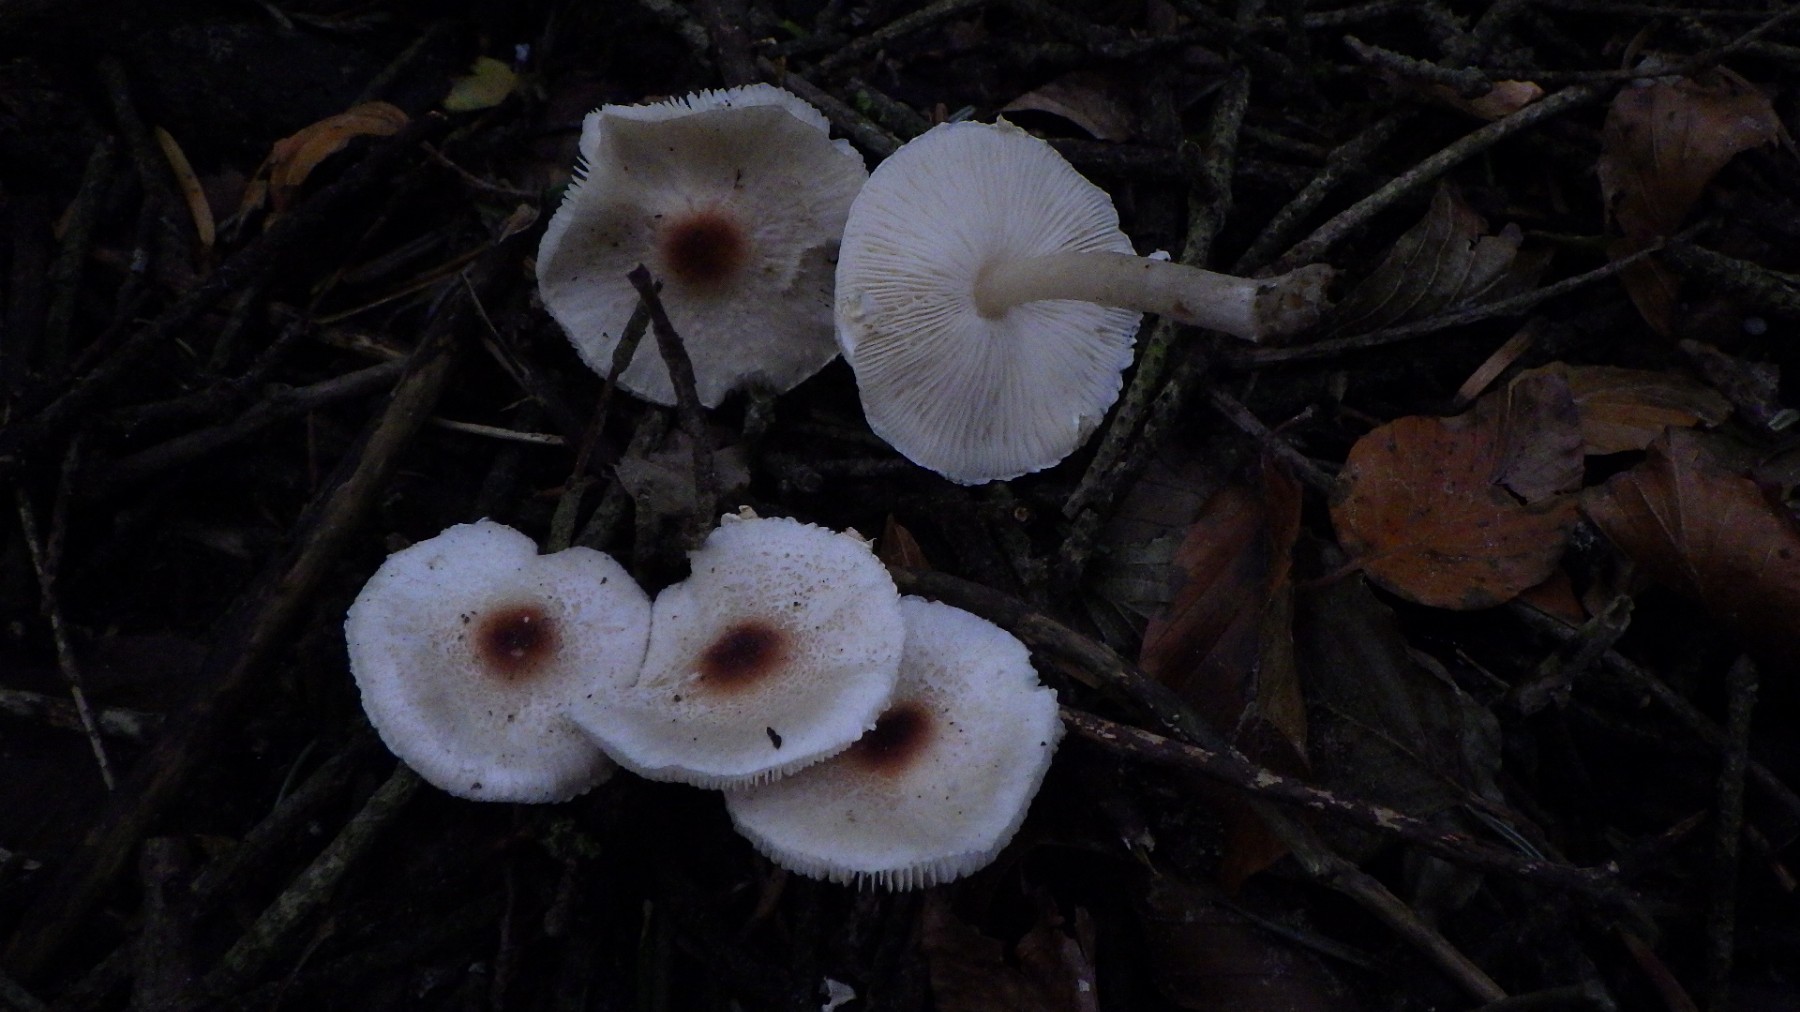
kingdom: Fungi
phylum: Basidiomycota
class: Agaricomycetes
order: Agaricales
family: Agaricaceae
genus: Lepiota
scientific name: Lepiota cristata
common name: stinkende parasolhat
